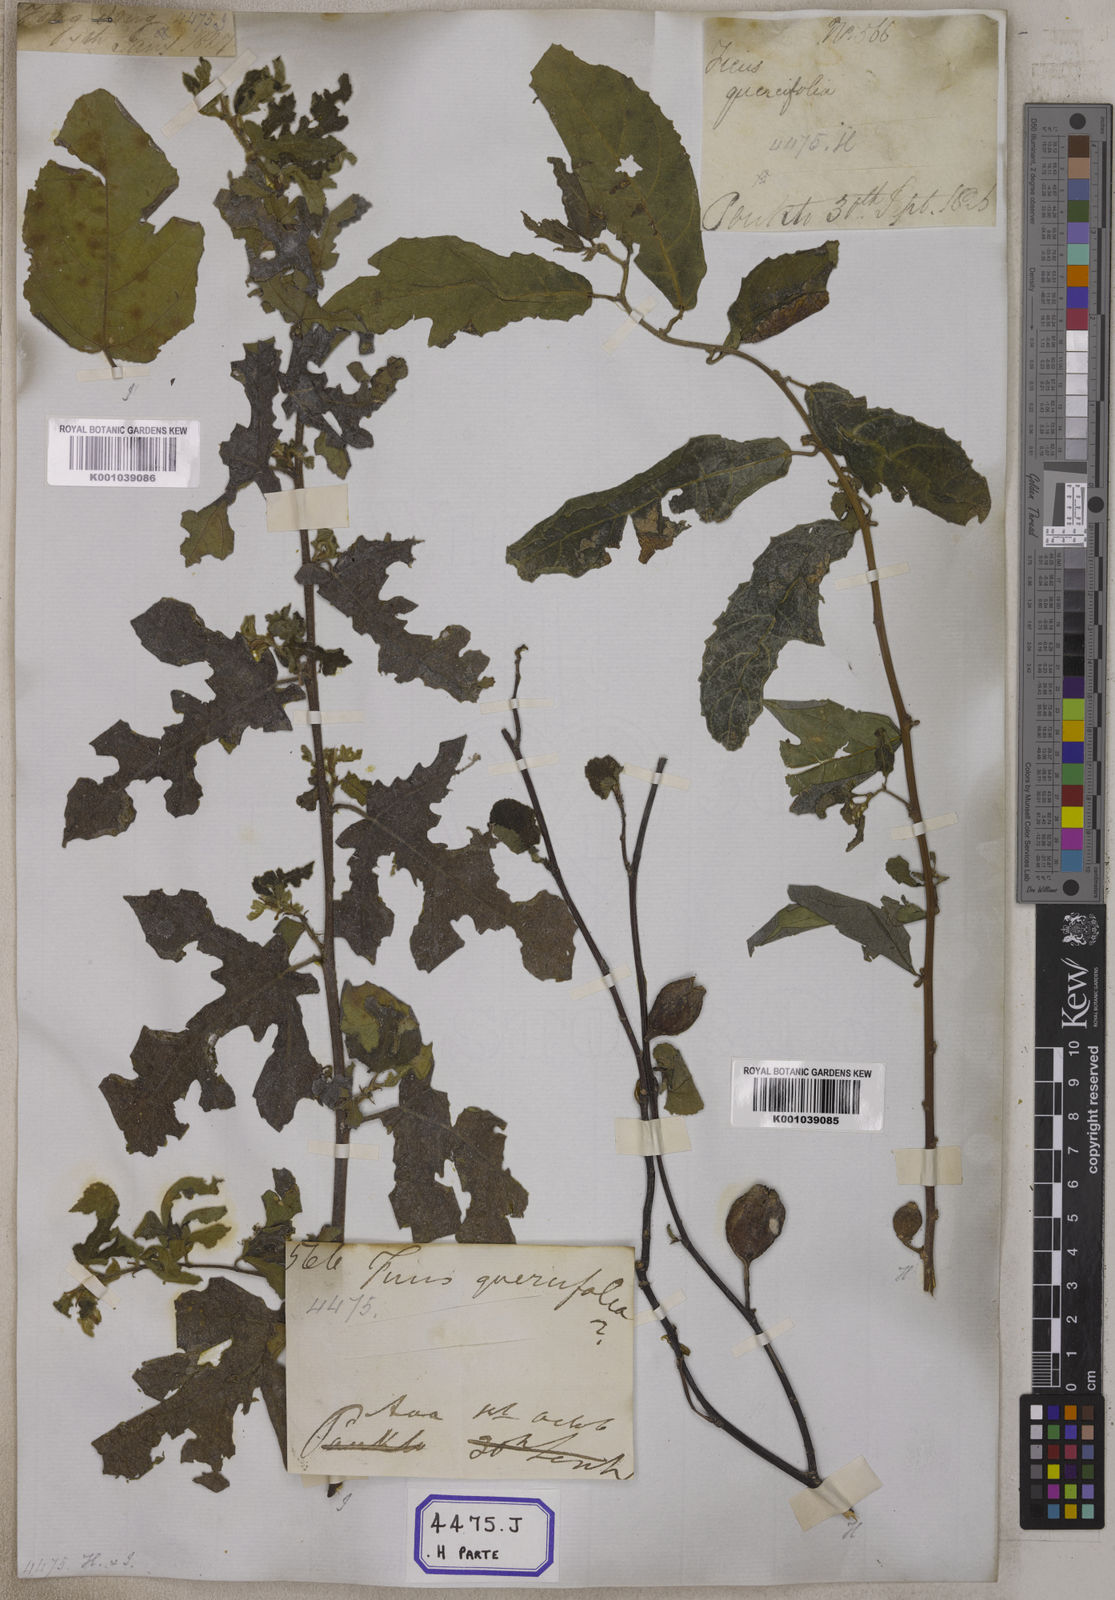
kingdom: Plantae
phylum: Tracheophyta
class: Magnoliopsida
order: Rosales
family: Moraceae
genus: Ficus
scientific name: Ficus
